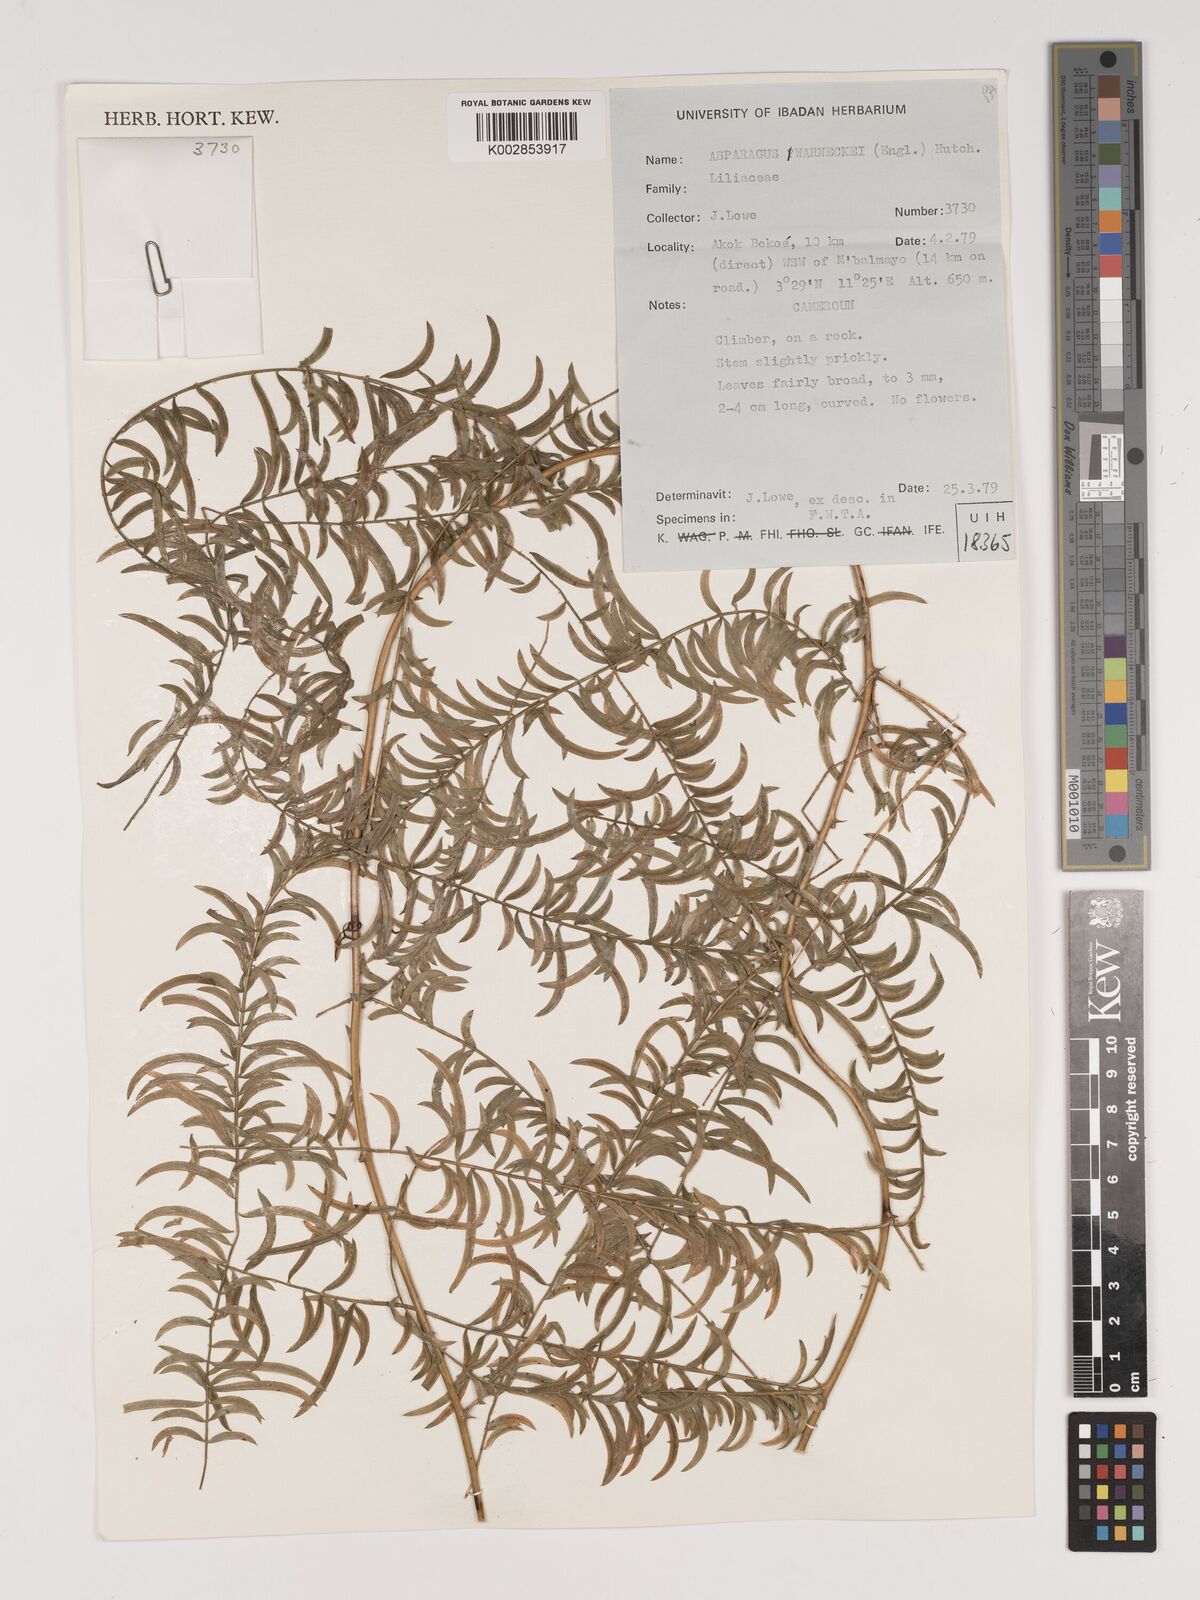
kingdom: Plantae
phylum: Tracheophyta
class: Liliopsida
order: Asparagales
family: Asparagaceae
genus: Asparagus
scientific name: Asparagus warneckei
